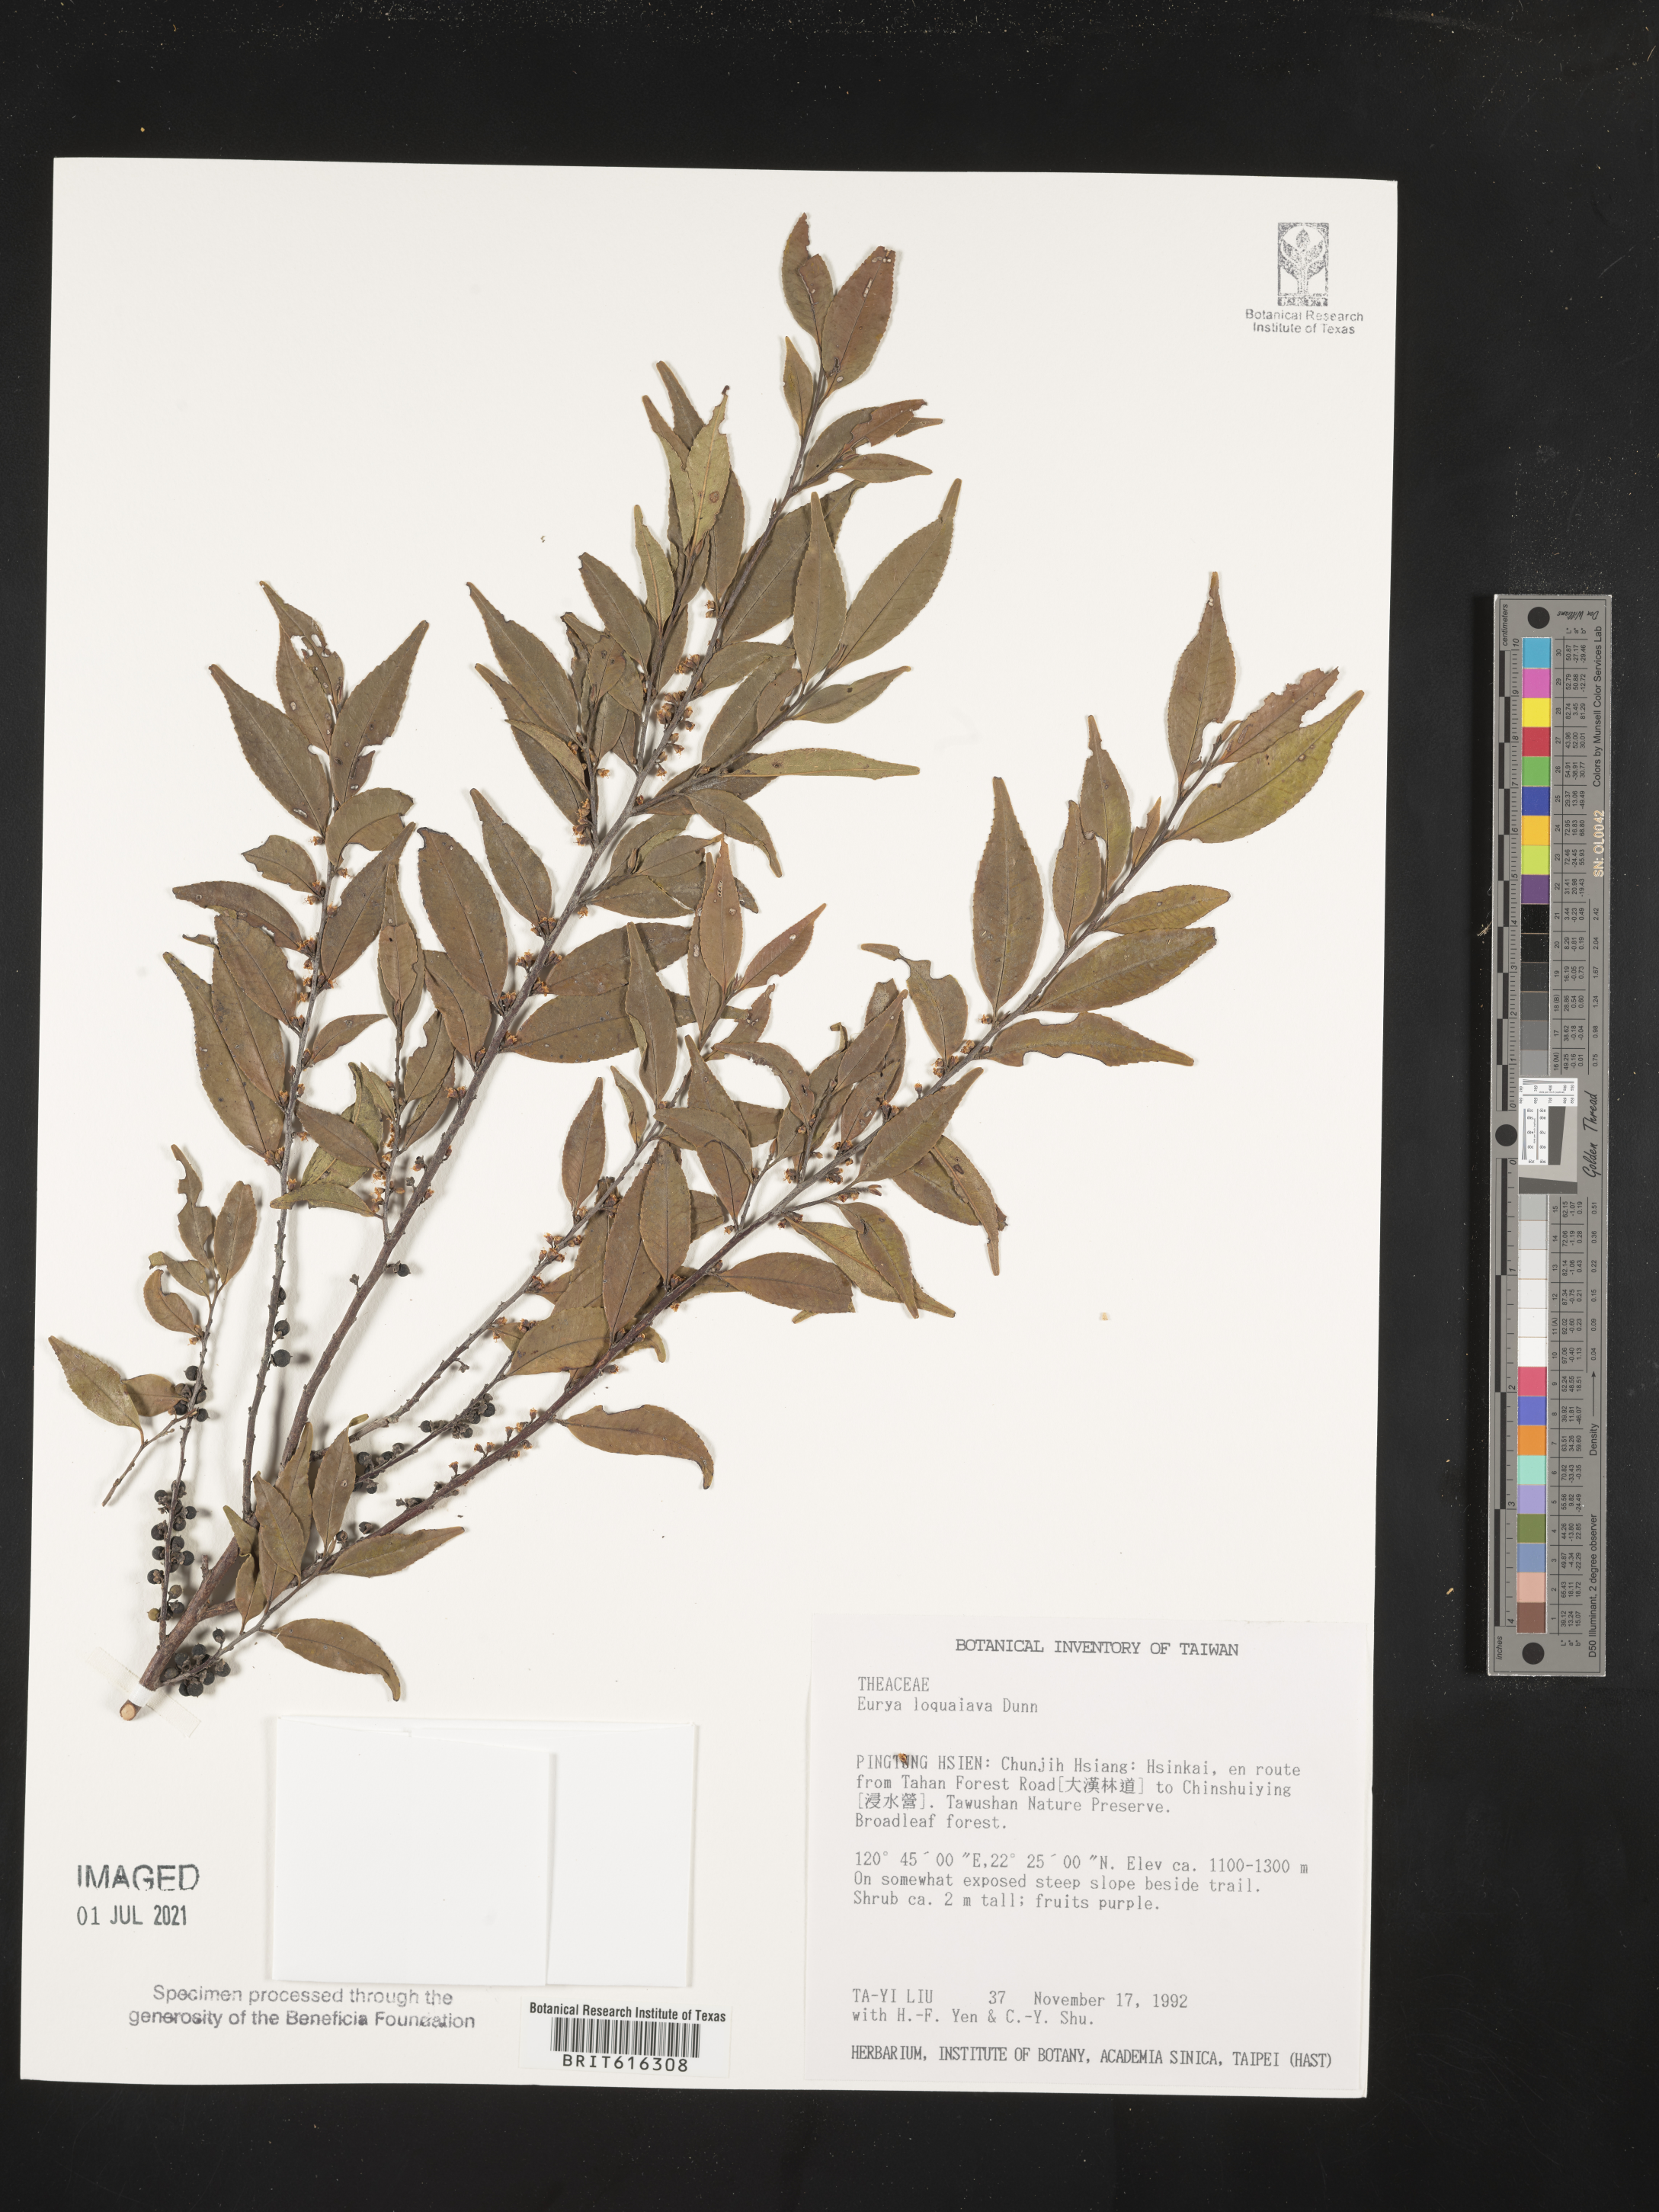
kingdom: Plantae
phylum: Tracheophyta
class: Magnoliopsida
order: Ericales
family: Pentaphylacaceae
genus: Eurya
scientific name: Eurya loquaiana
